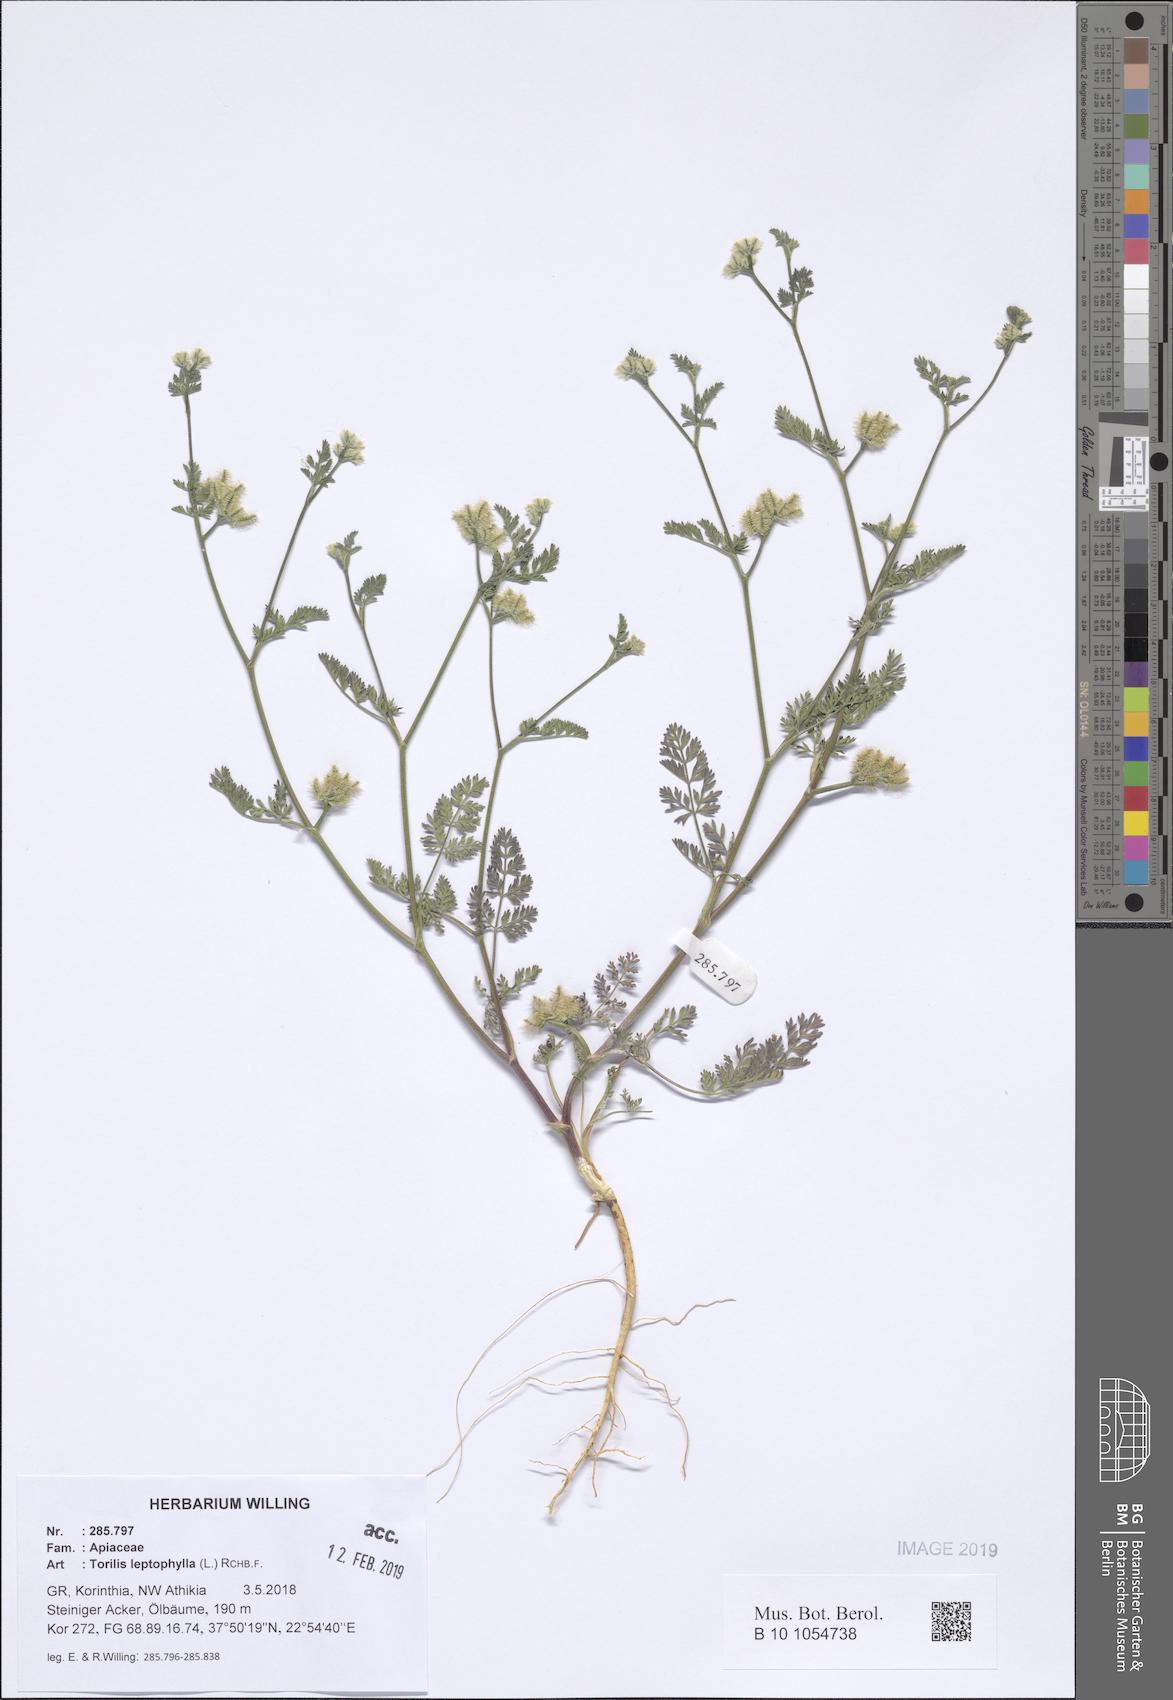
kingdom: Plantae
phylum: Tracheophyta
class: Magnoliopsida
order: Apiales
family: Apiaceae
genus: Torilis
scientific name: Torilis leptophylla
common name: Bristlefruit hedgeparsley
